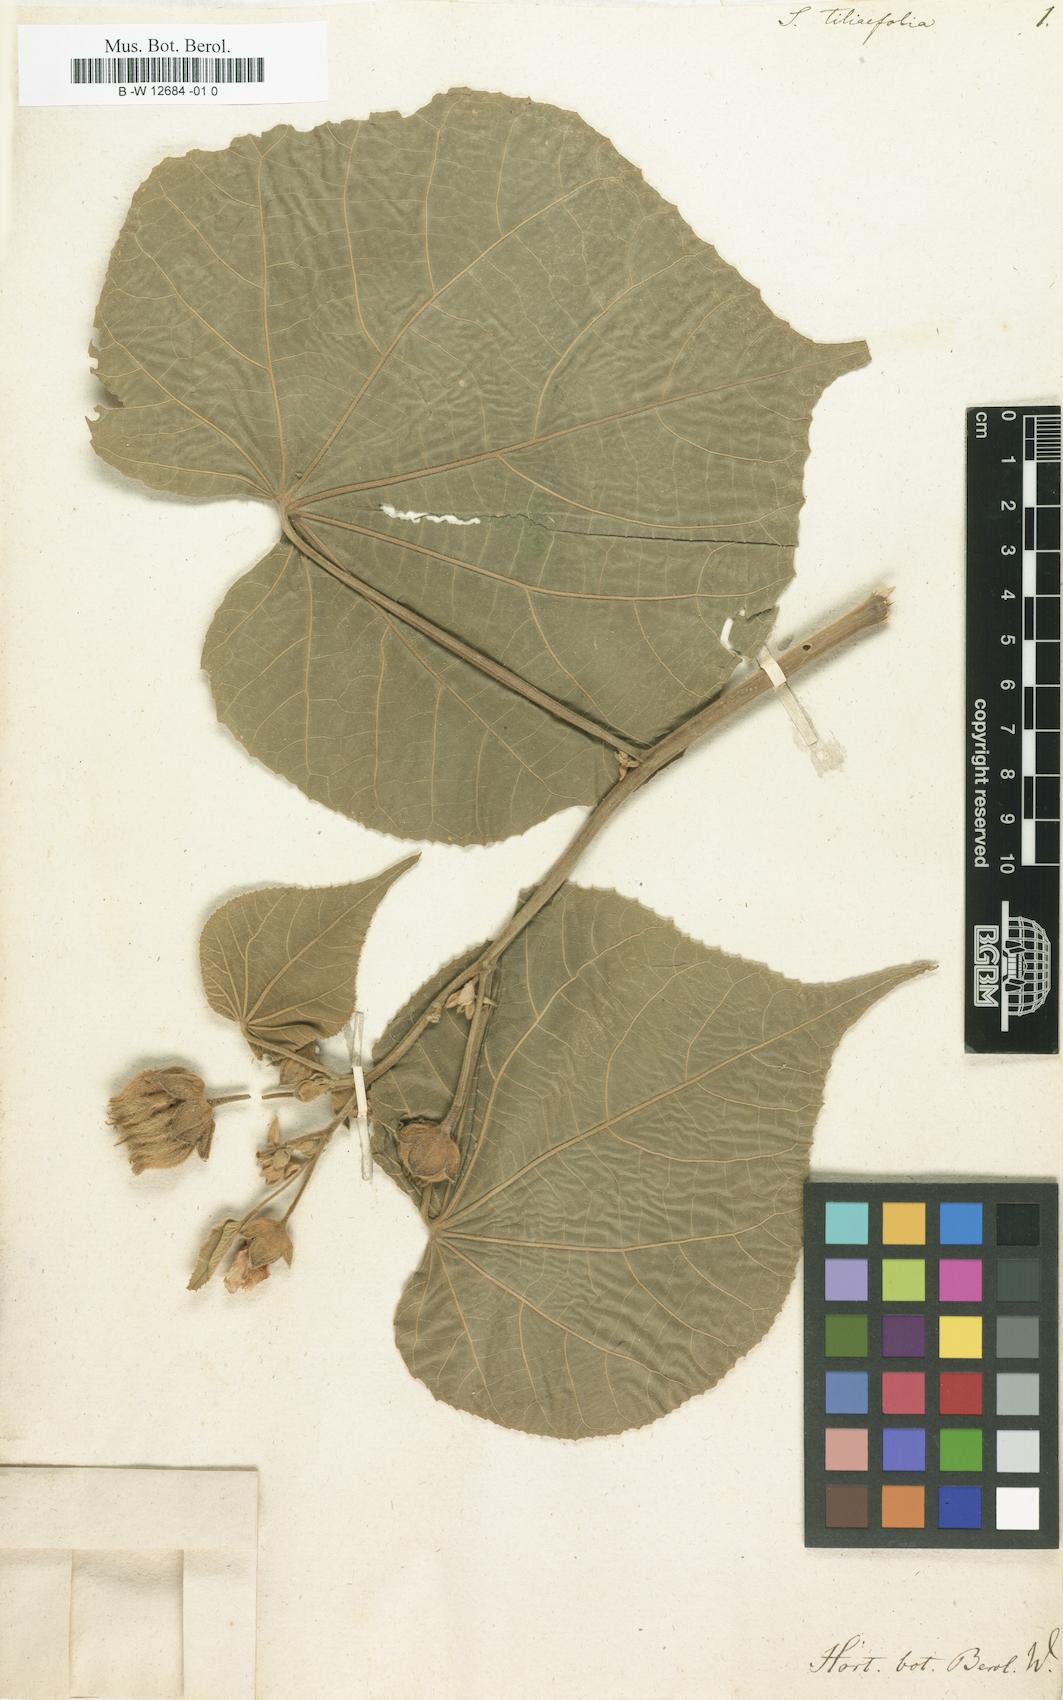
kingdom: Plantae
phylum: Tracheophyta
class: Magnoliopsida
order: Malvales
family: Malvaceae
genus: Abutilon
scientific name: Abutilon theophrasti
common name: Velvetleaf
